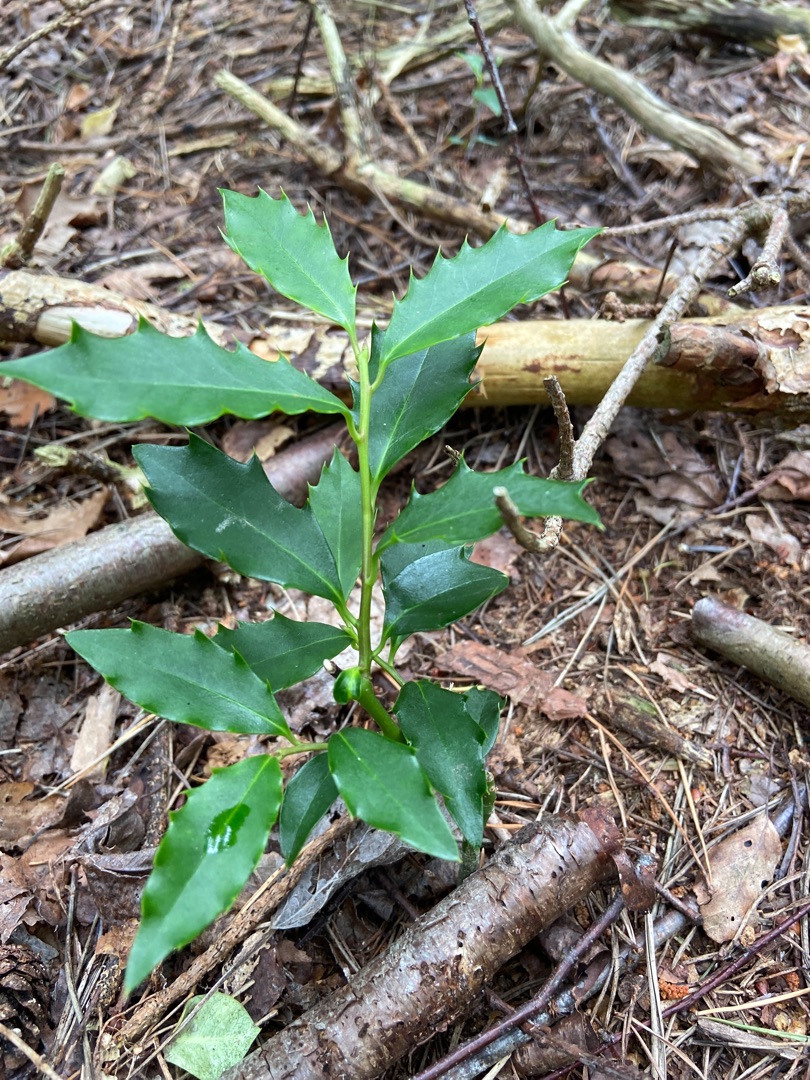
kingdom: Plantae
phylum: Tracheophyta
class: Magnoliopsida
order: Aquifoliales
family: Aquifoliaceae
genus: Ilex
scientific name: Ilex altaclerensis
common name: Storbladet kristtorn
